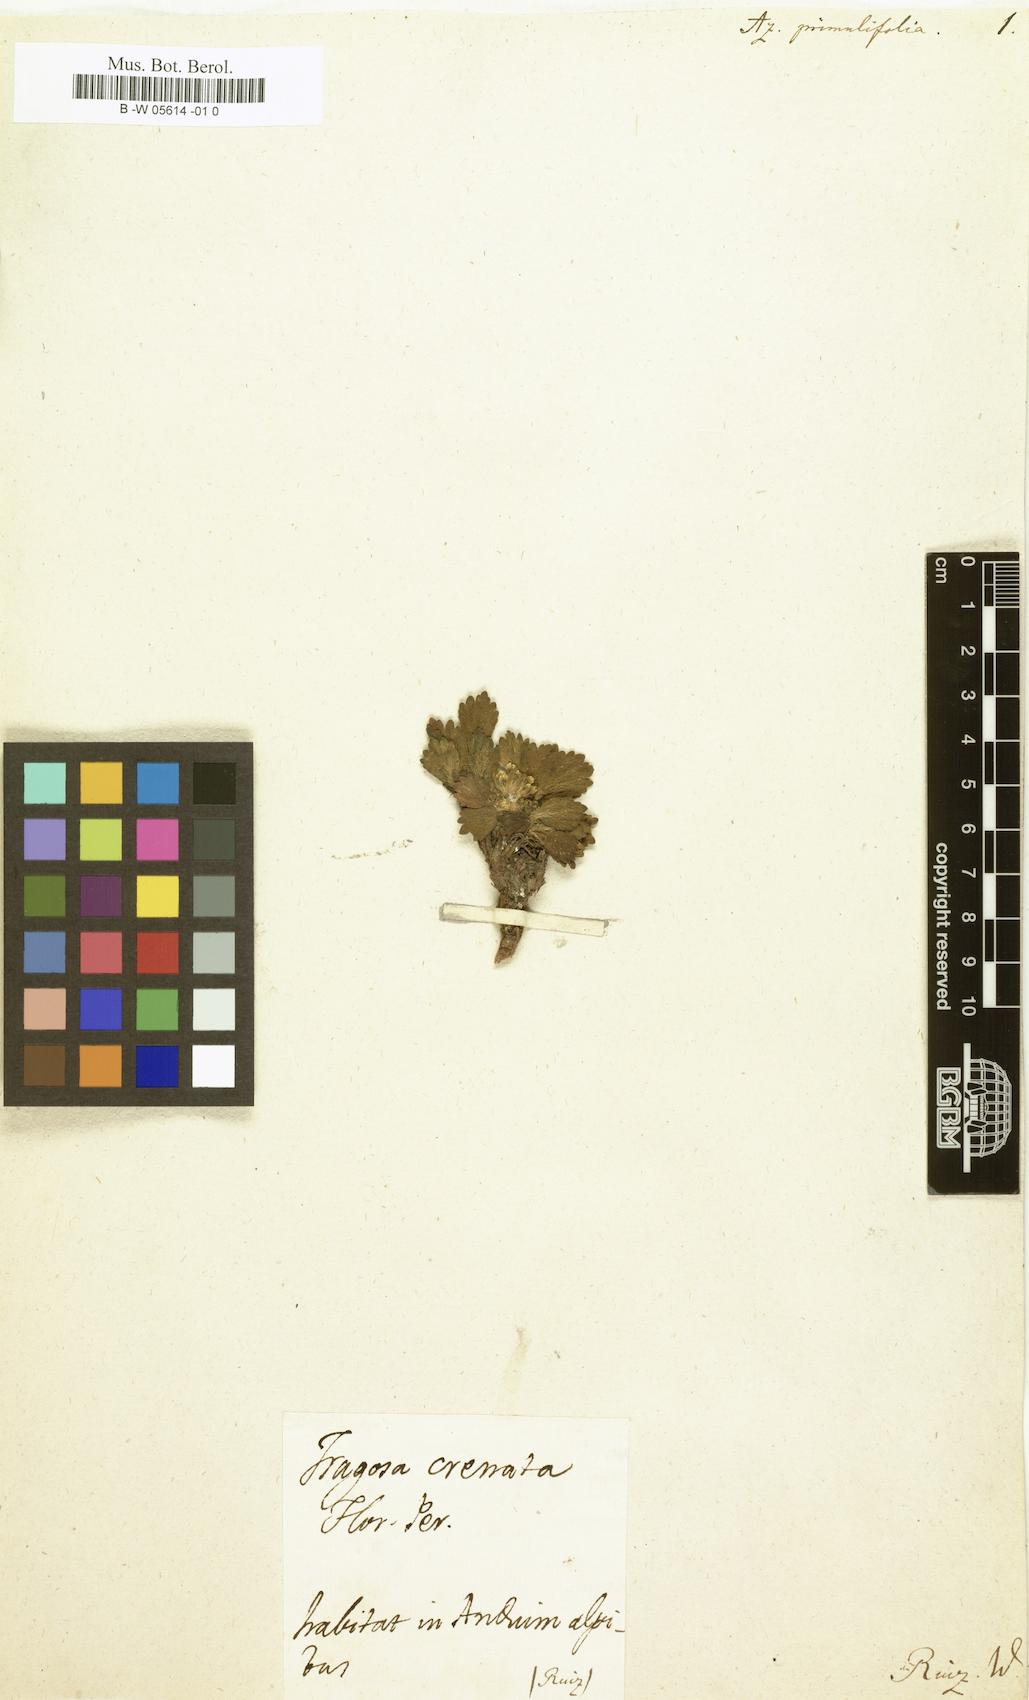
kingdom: Plantae
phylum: Tracheophyta
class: Magnoliopsida
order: Apiales
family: Apiaceae
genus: Azorella
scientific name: Azorella
